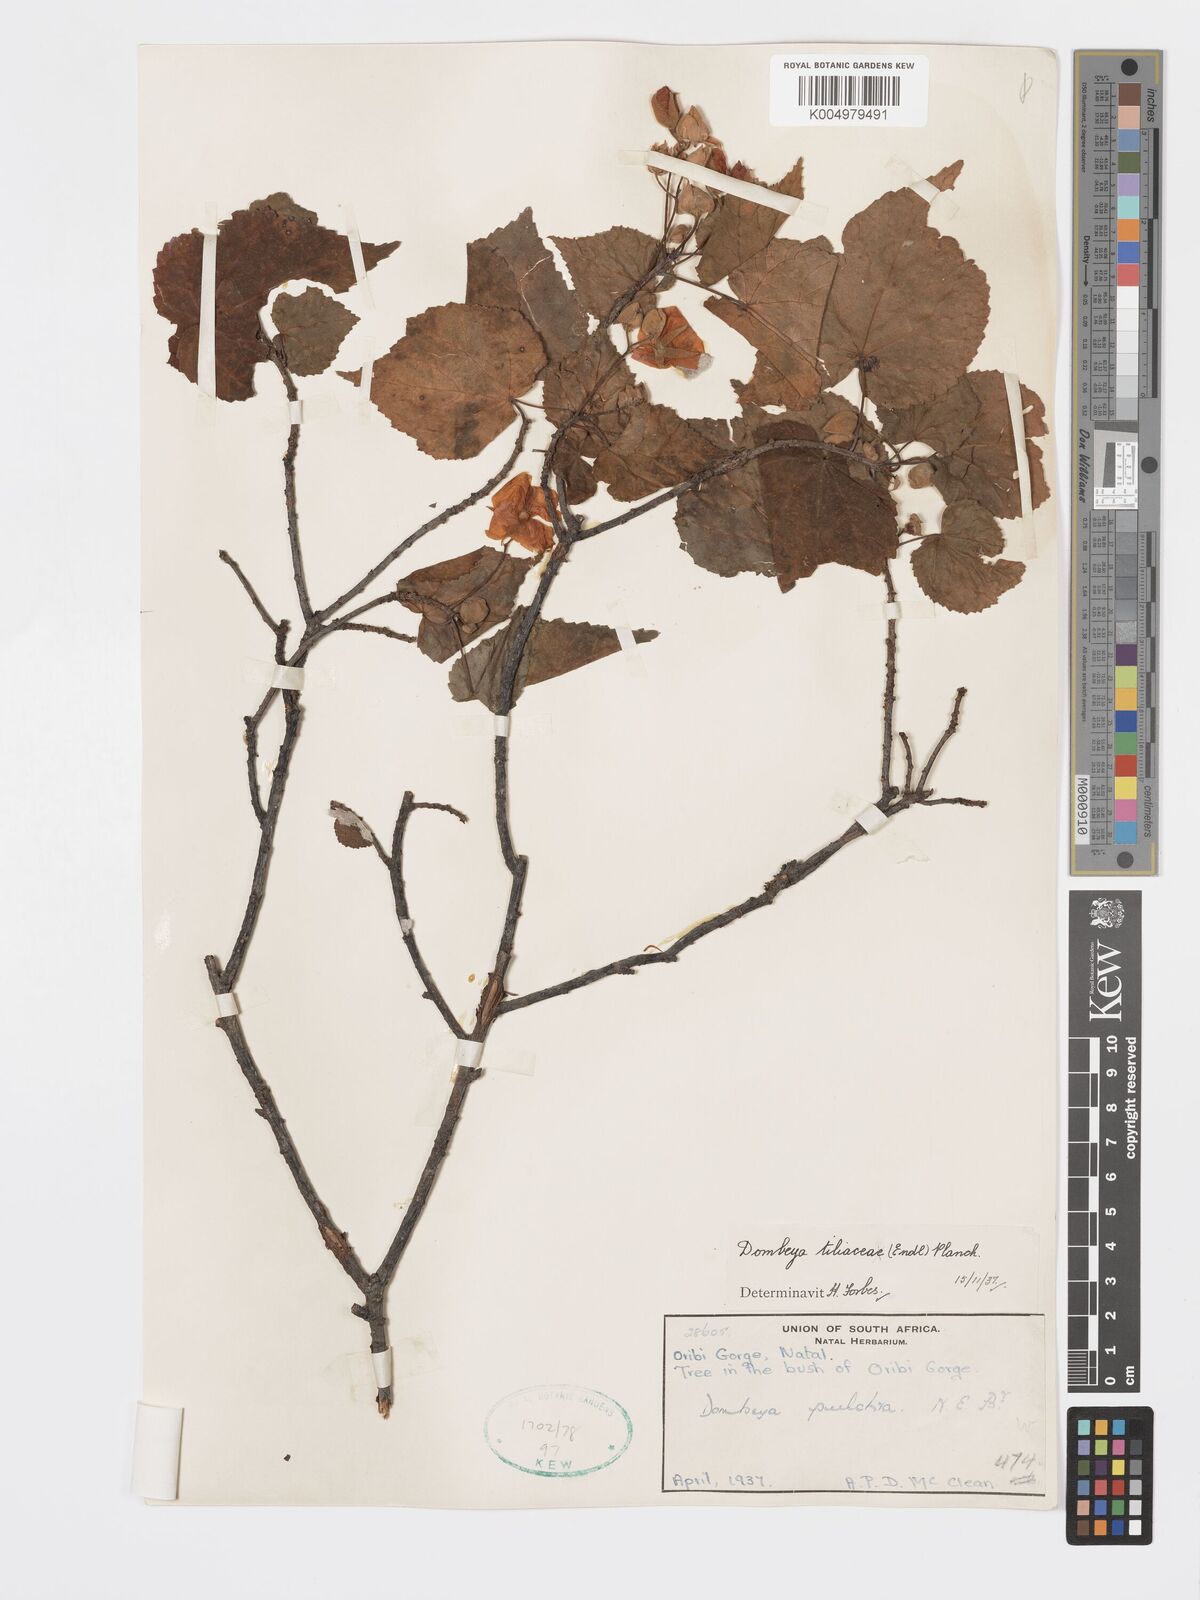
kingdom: Plantae
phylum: Tracheophyta
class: Magnoliopsida
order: Malvales
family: Malvaceae
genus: Dombeya
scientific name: Dombeya tiliacea
